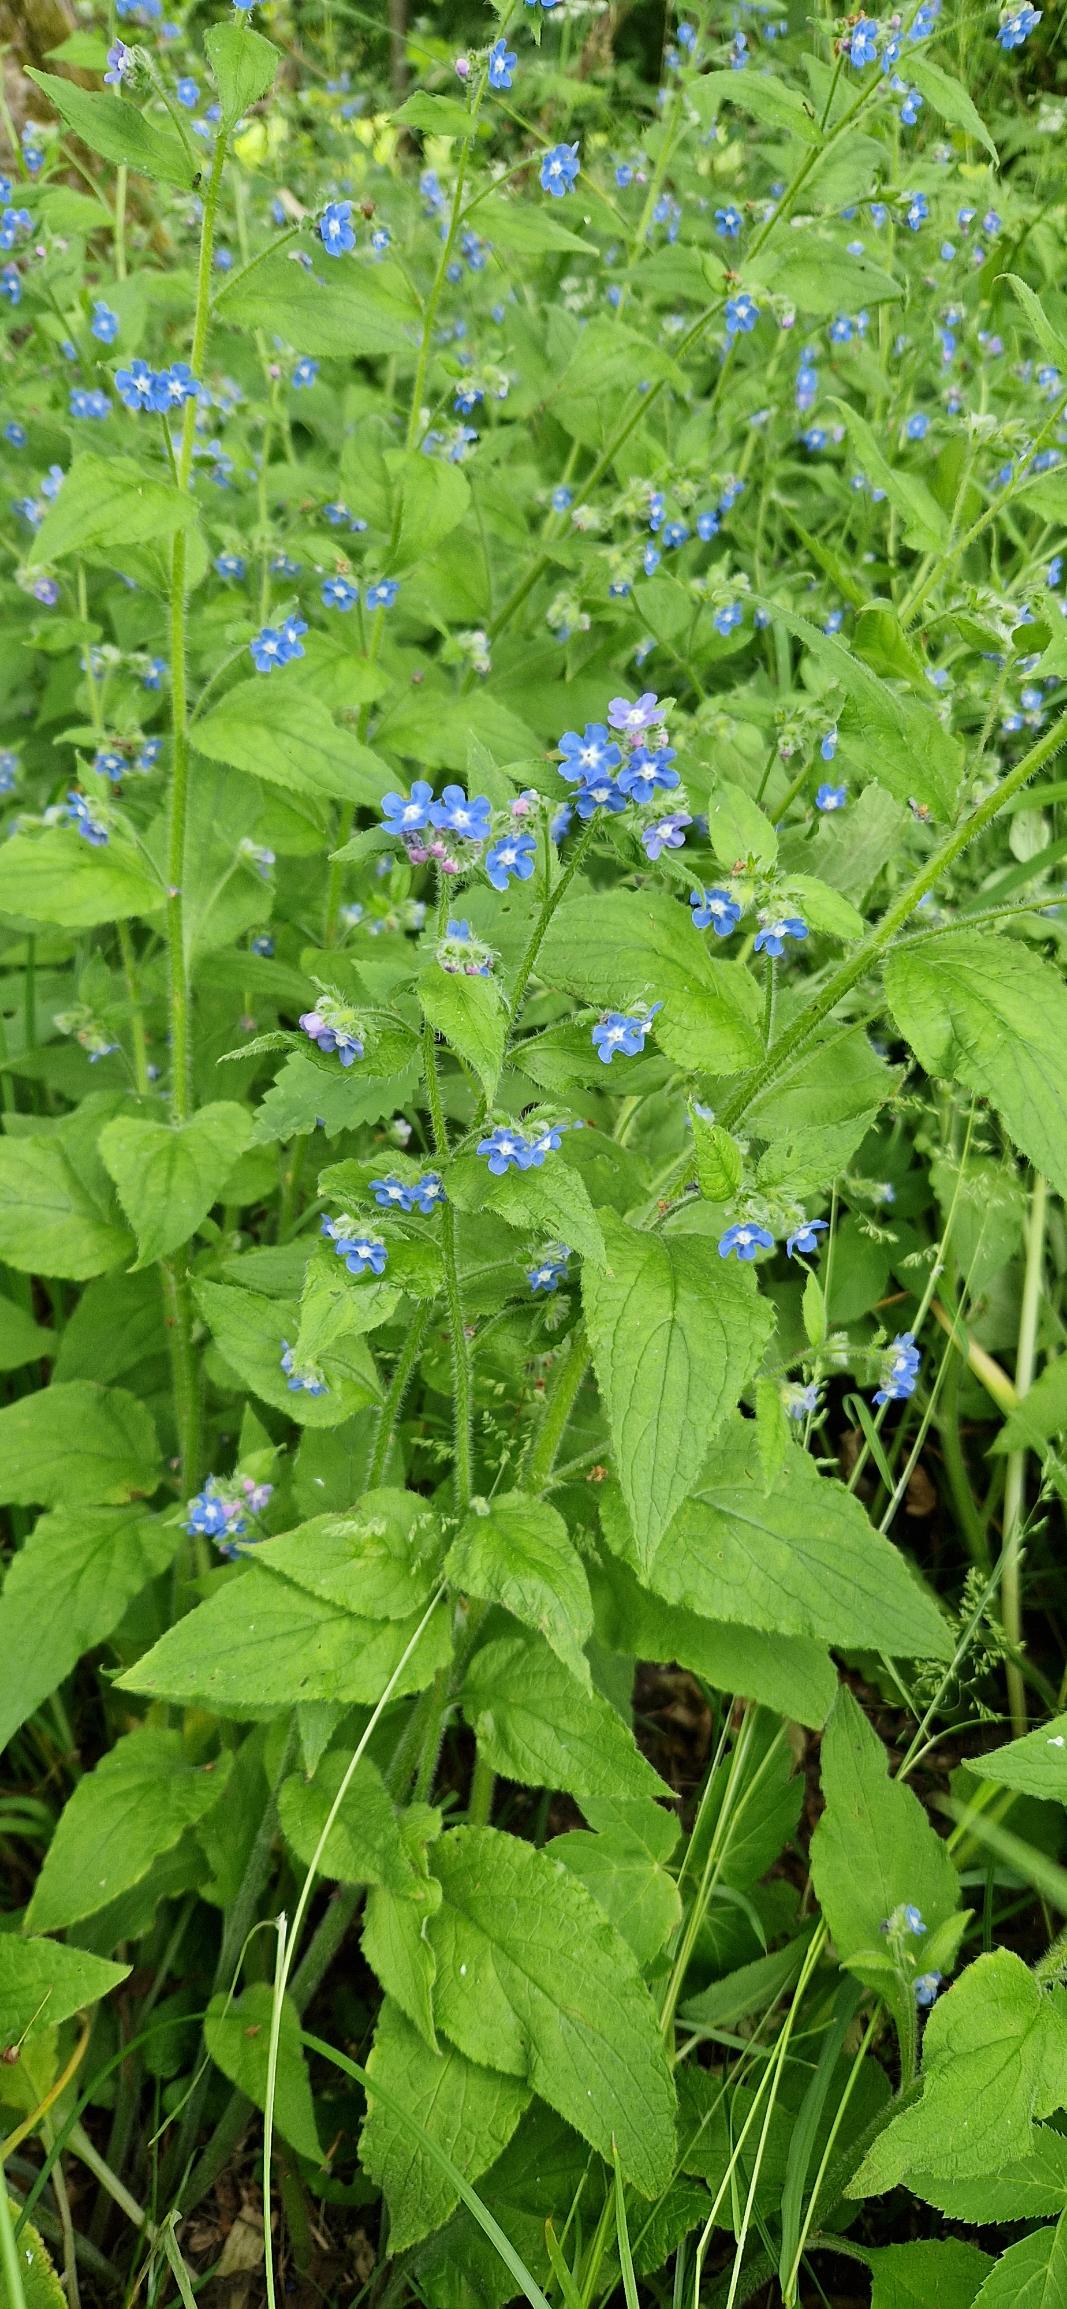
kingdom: Plantae
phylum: Tracheophyta
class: Magnoliopsida
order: Boraginales
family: Boraginaceae
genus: Pentaglottis
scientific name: Pentaglottis sempervirens
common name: Femtunge
